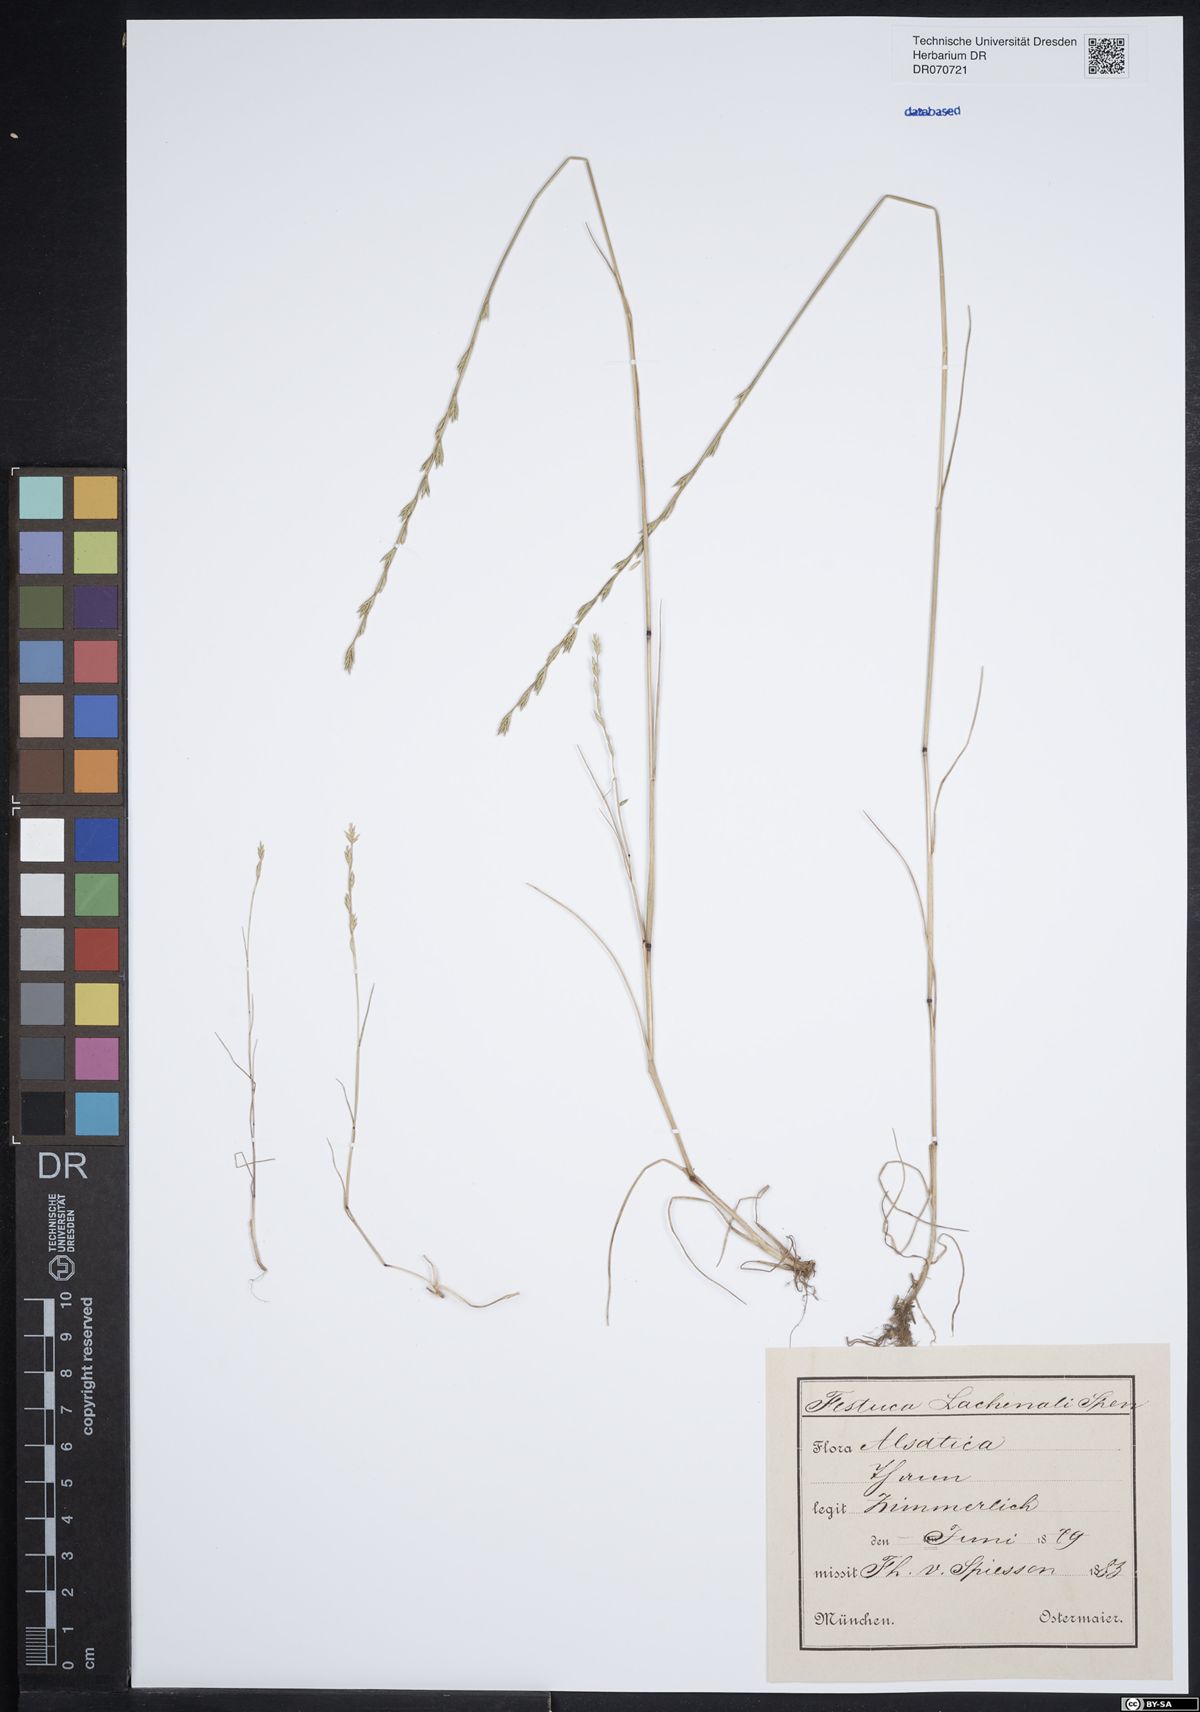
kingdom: Plantae
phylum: Tracheophyta
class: Liliopsida
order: Poales
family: Poaceae
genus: Festuca
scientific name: Festuca lachenalii
